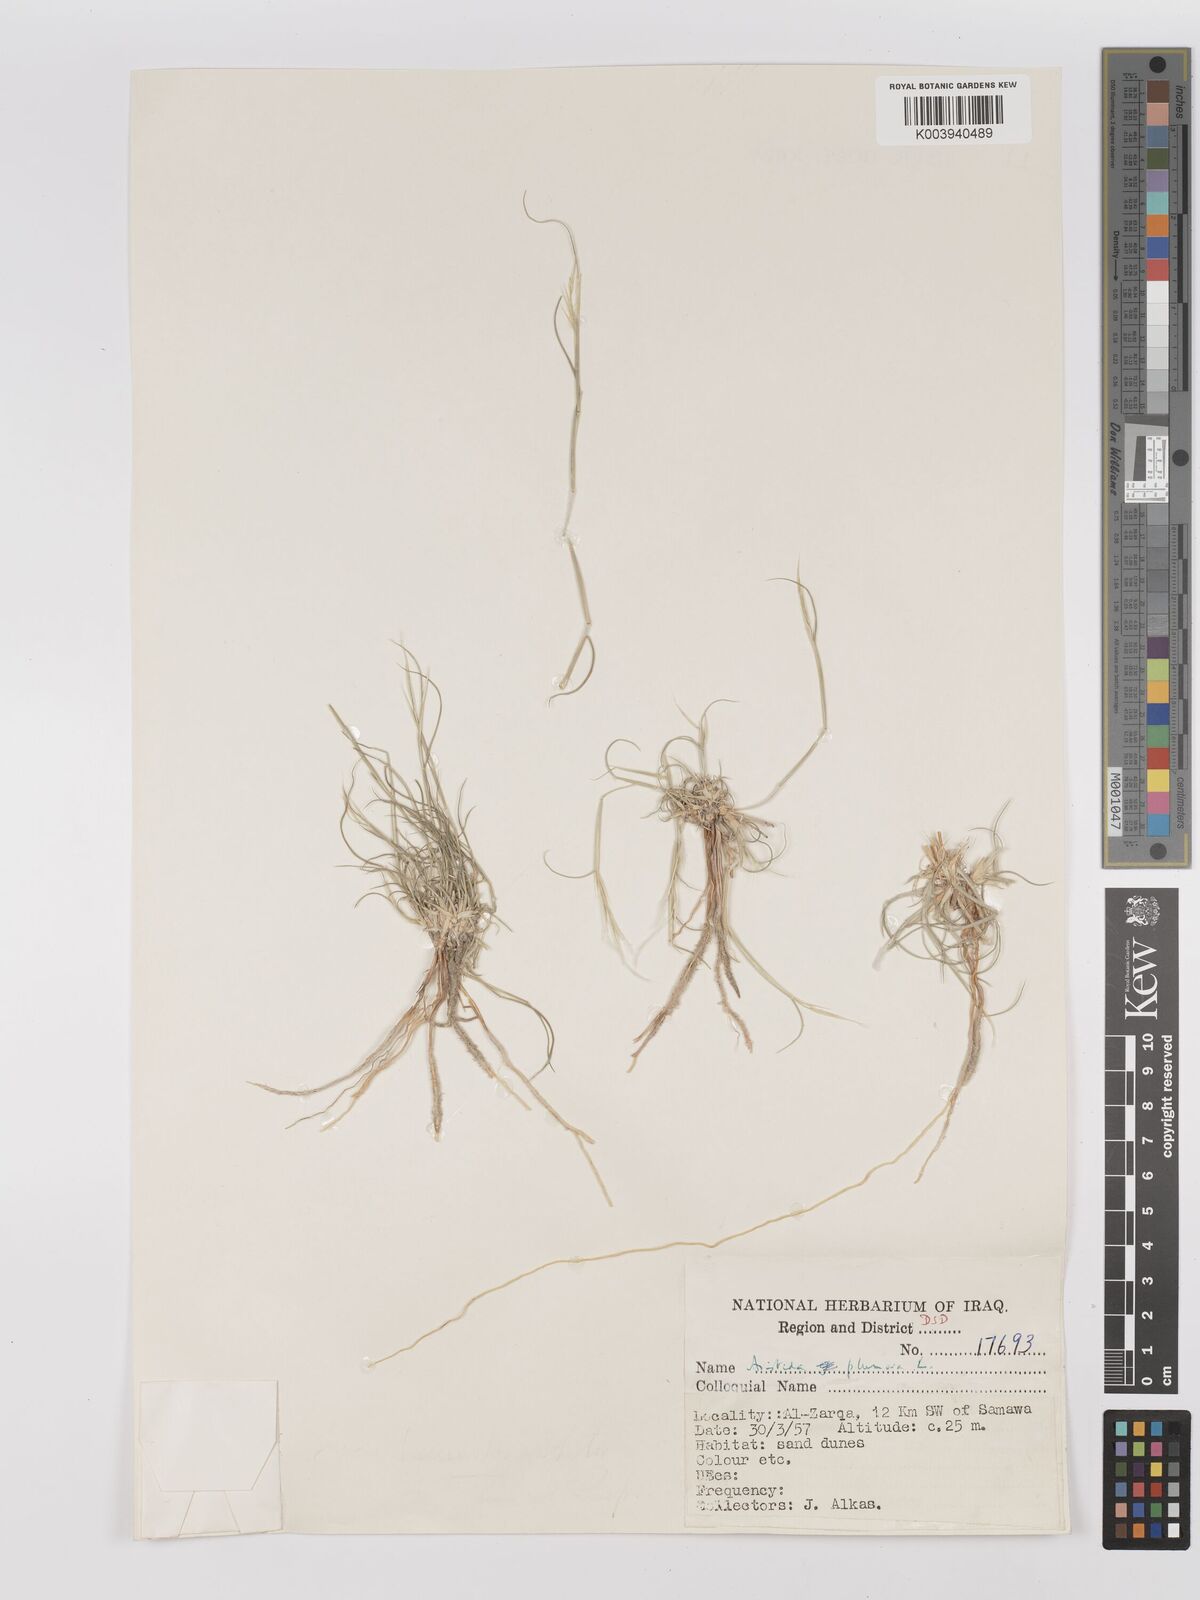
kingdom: Plantae
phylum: Tracheophyta
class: Liliopsida
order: Poales
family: Poaceae
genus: Stipagrostis
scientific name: Stipagrostis plumosa
